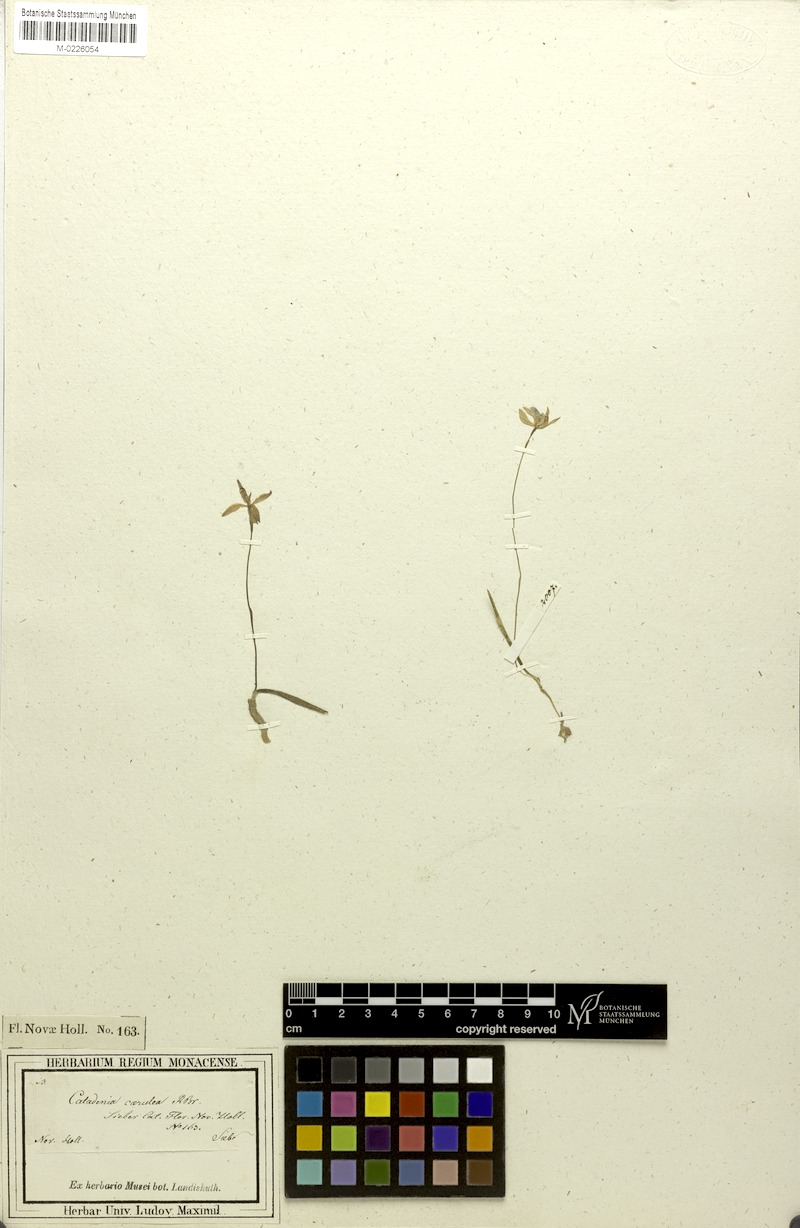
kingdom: Plantae
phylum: Tracheophyta
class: Liliopsida
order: Asparagales
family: Orchidaceae
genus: Caladenia
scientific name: Caladenia caerulea
